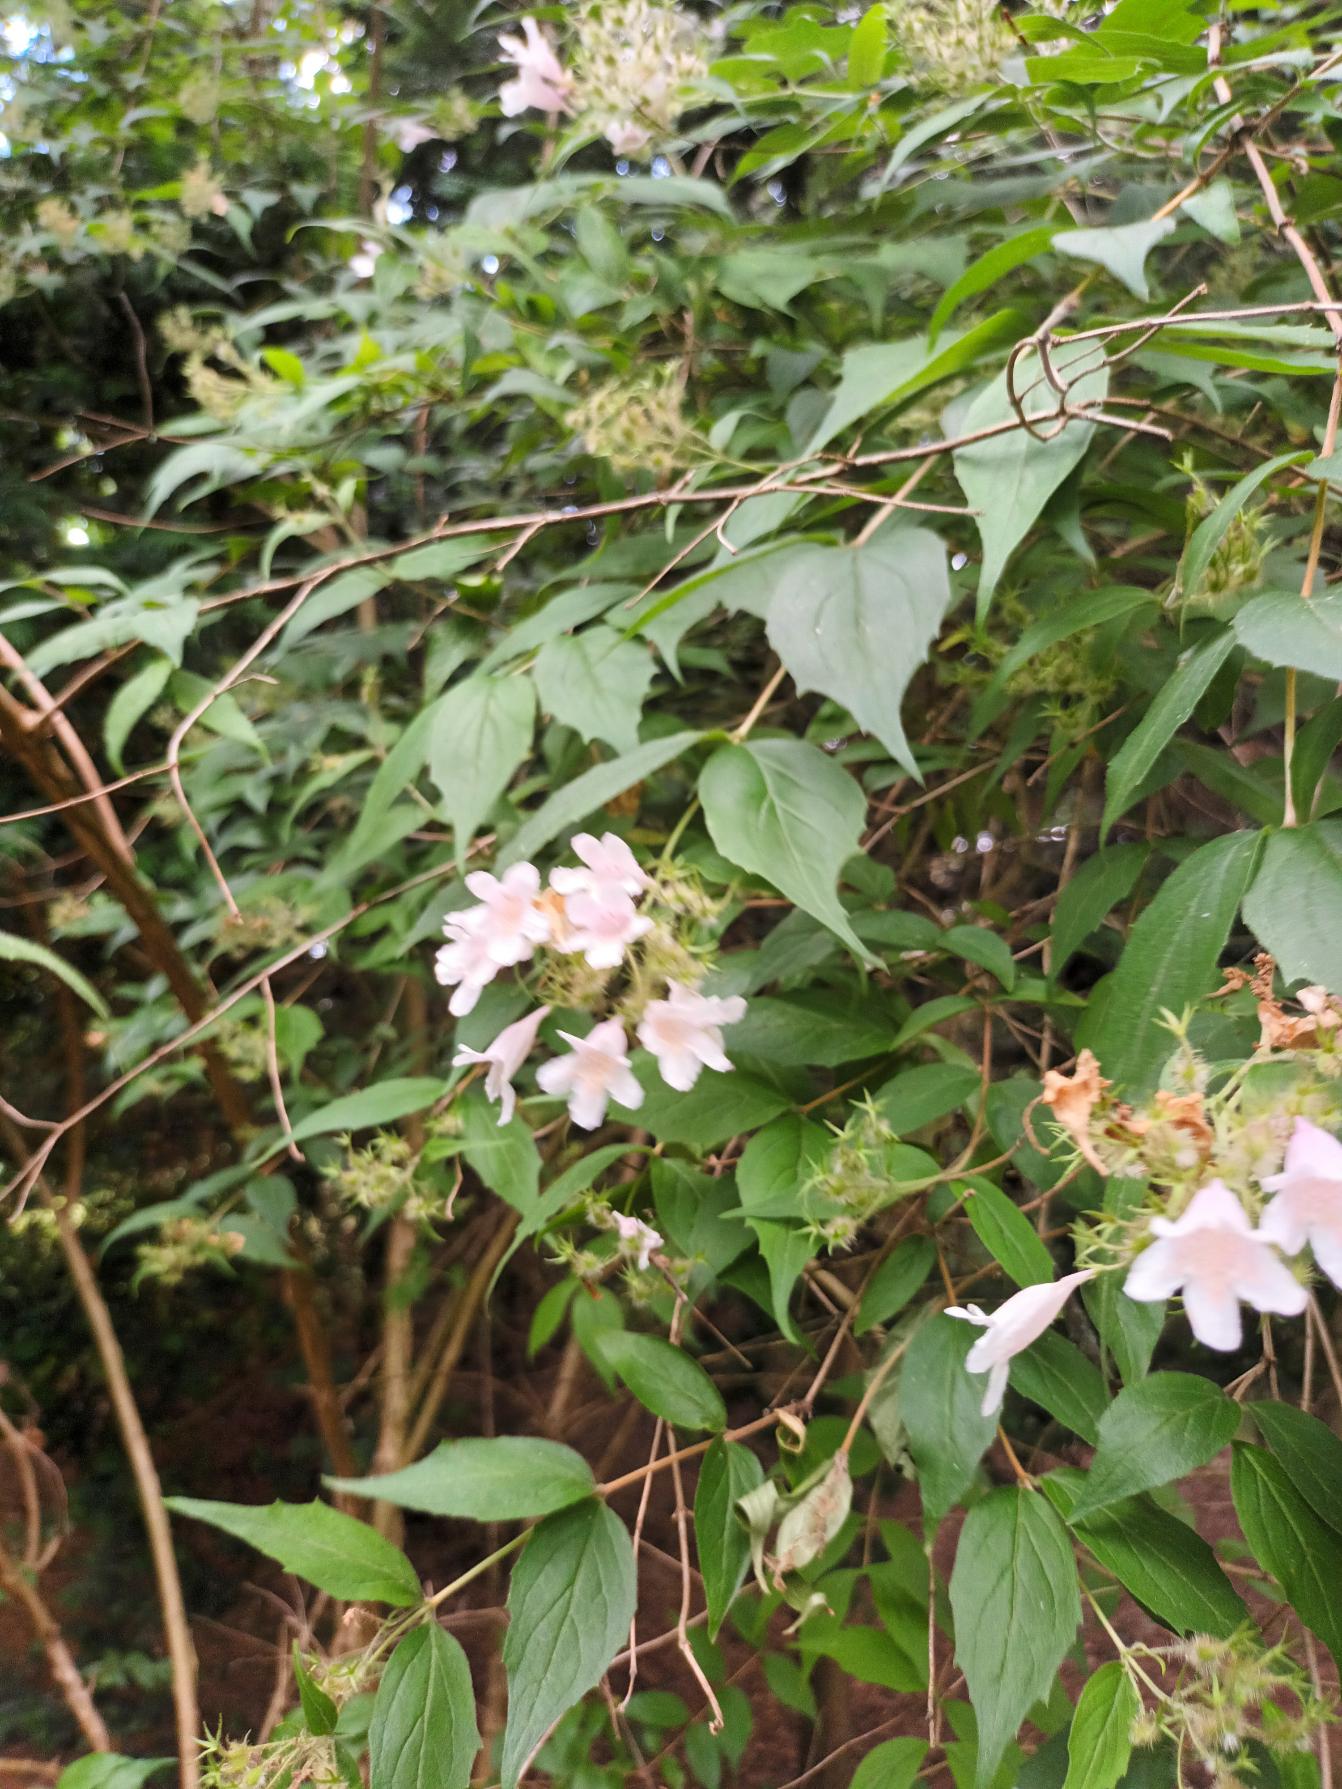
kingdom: Plantae
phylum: Tracheophyta
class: Magnoliopsida
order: Dipsacales
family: Caprifoliaceae
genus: Kolkwitzia
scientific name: Kolkwitzia amabilis
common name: Dronningebusk
